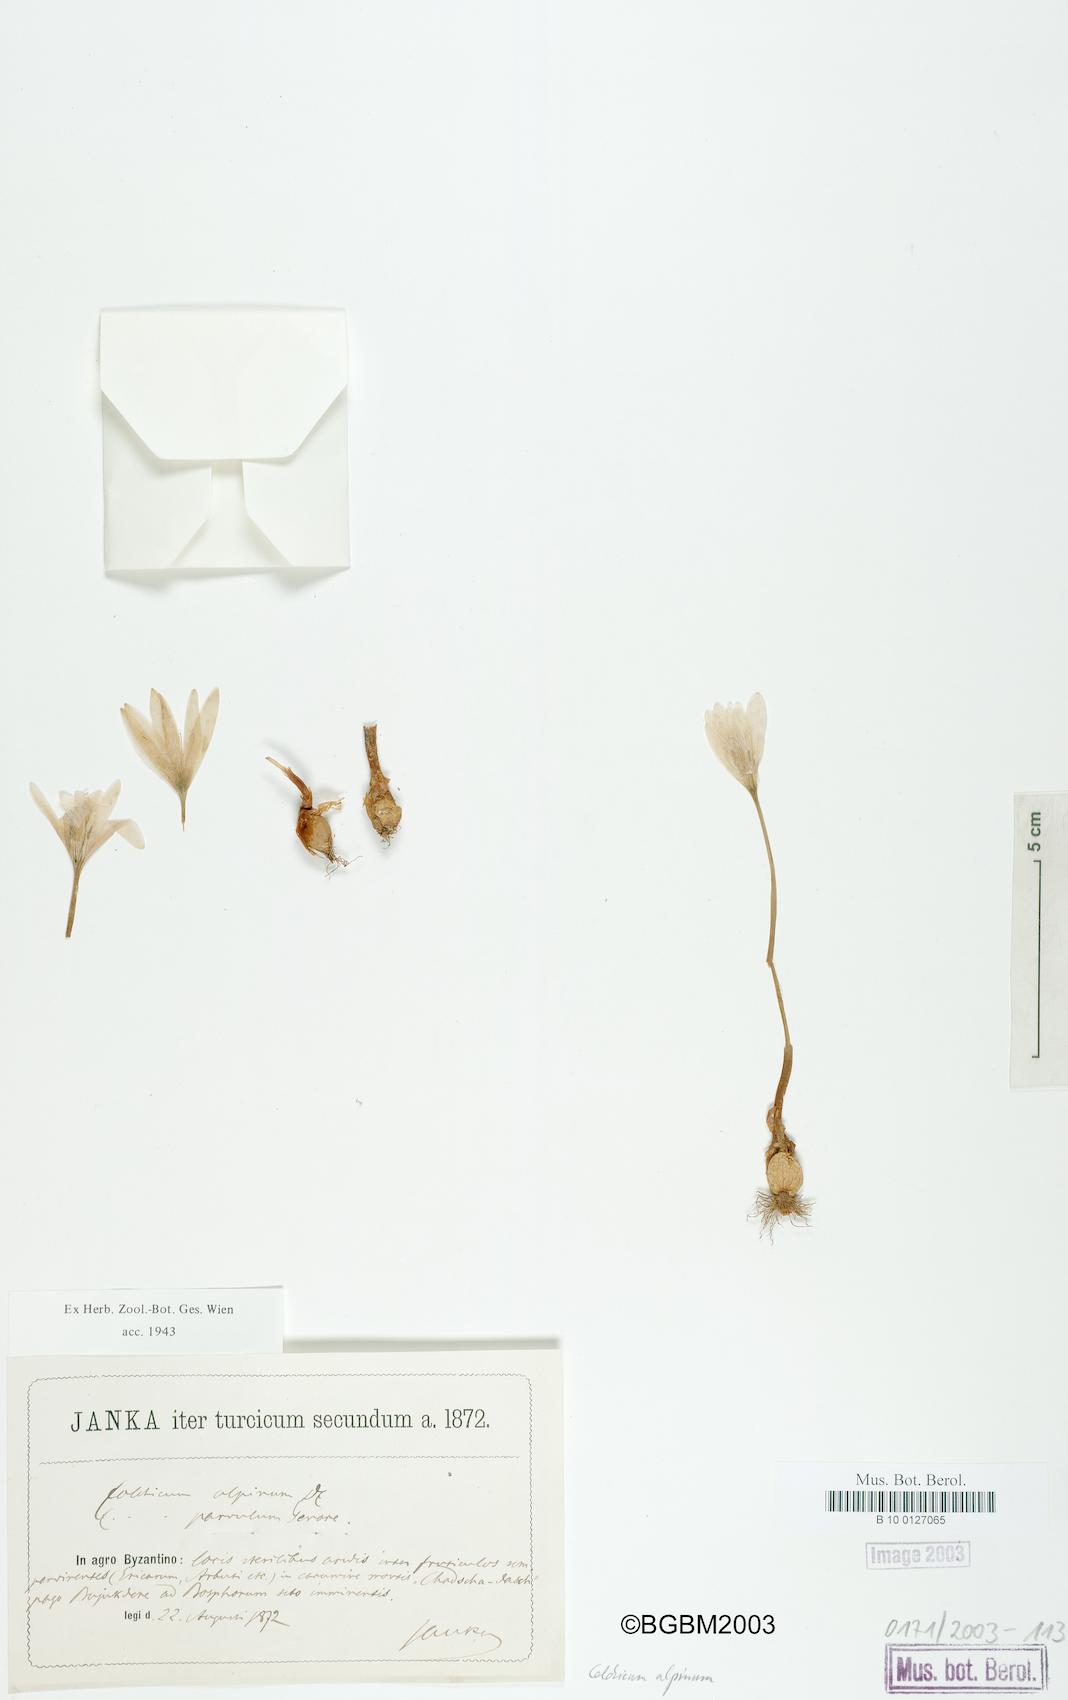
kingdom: Plantae
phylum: Tracheophyta
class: Liliopsida
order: Liliales
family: Colchicaceae
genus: Colchicum
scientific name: Colchicum alpinum
